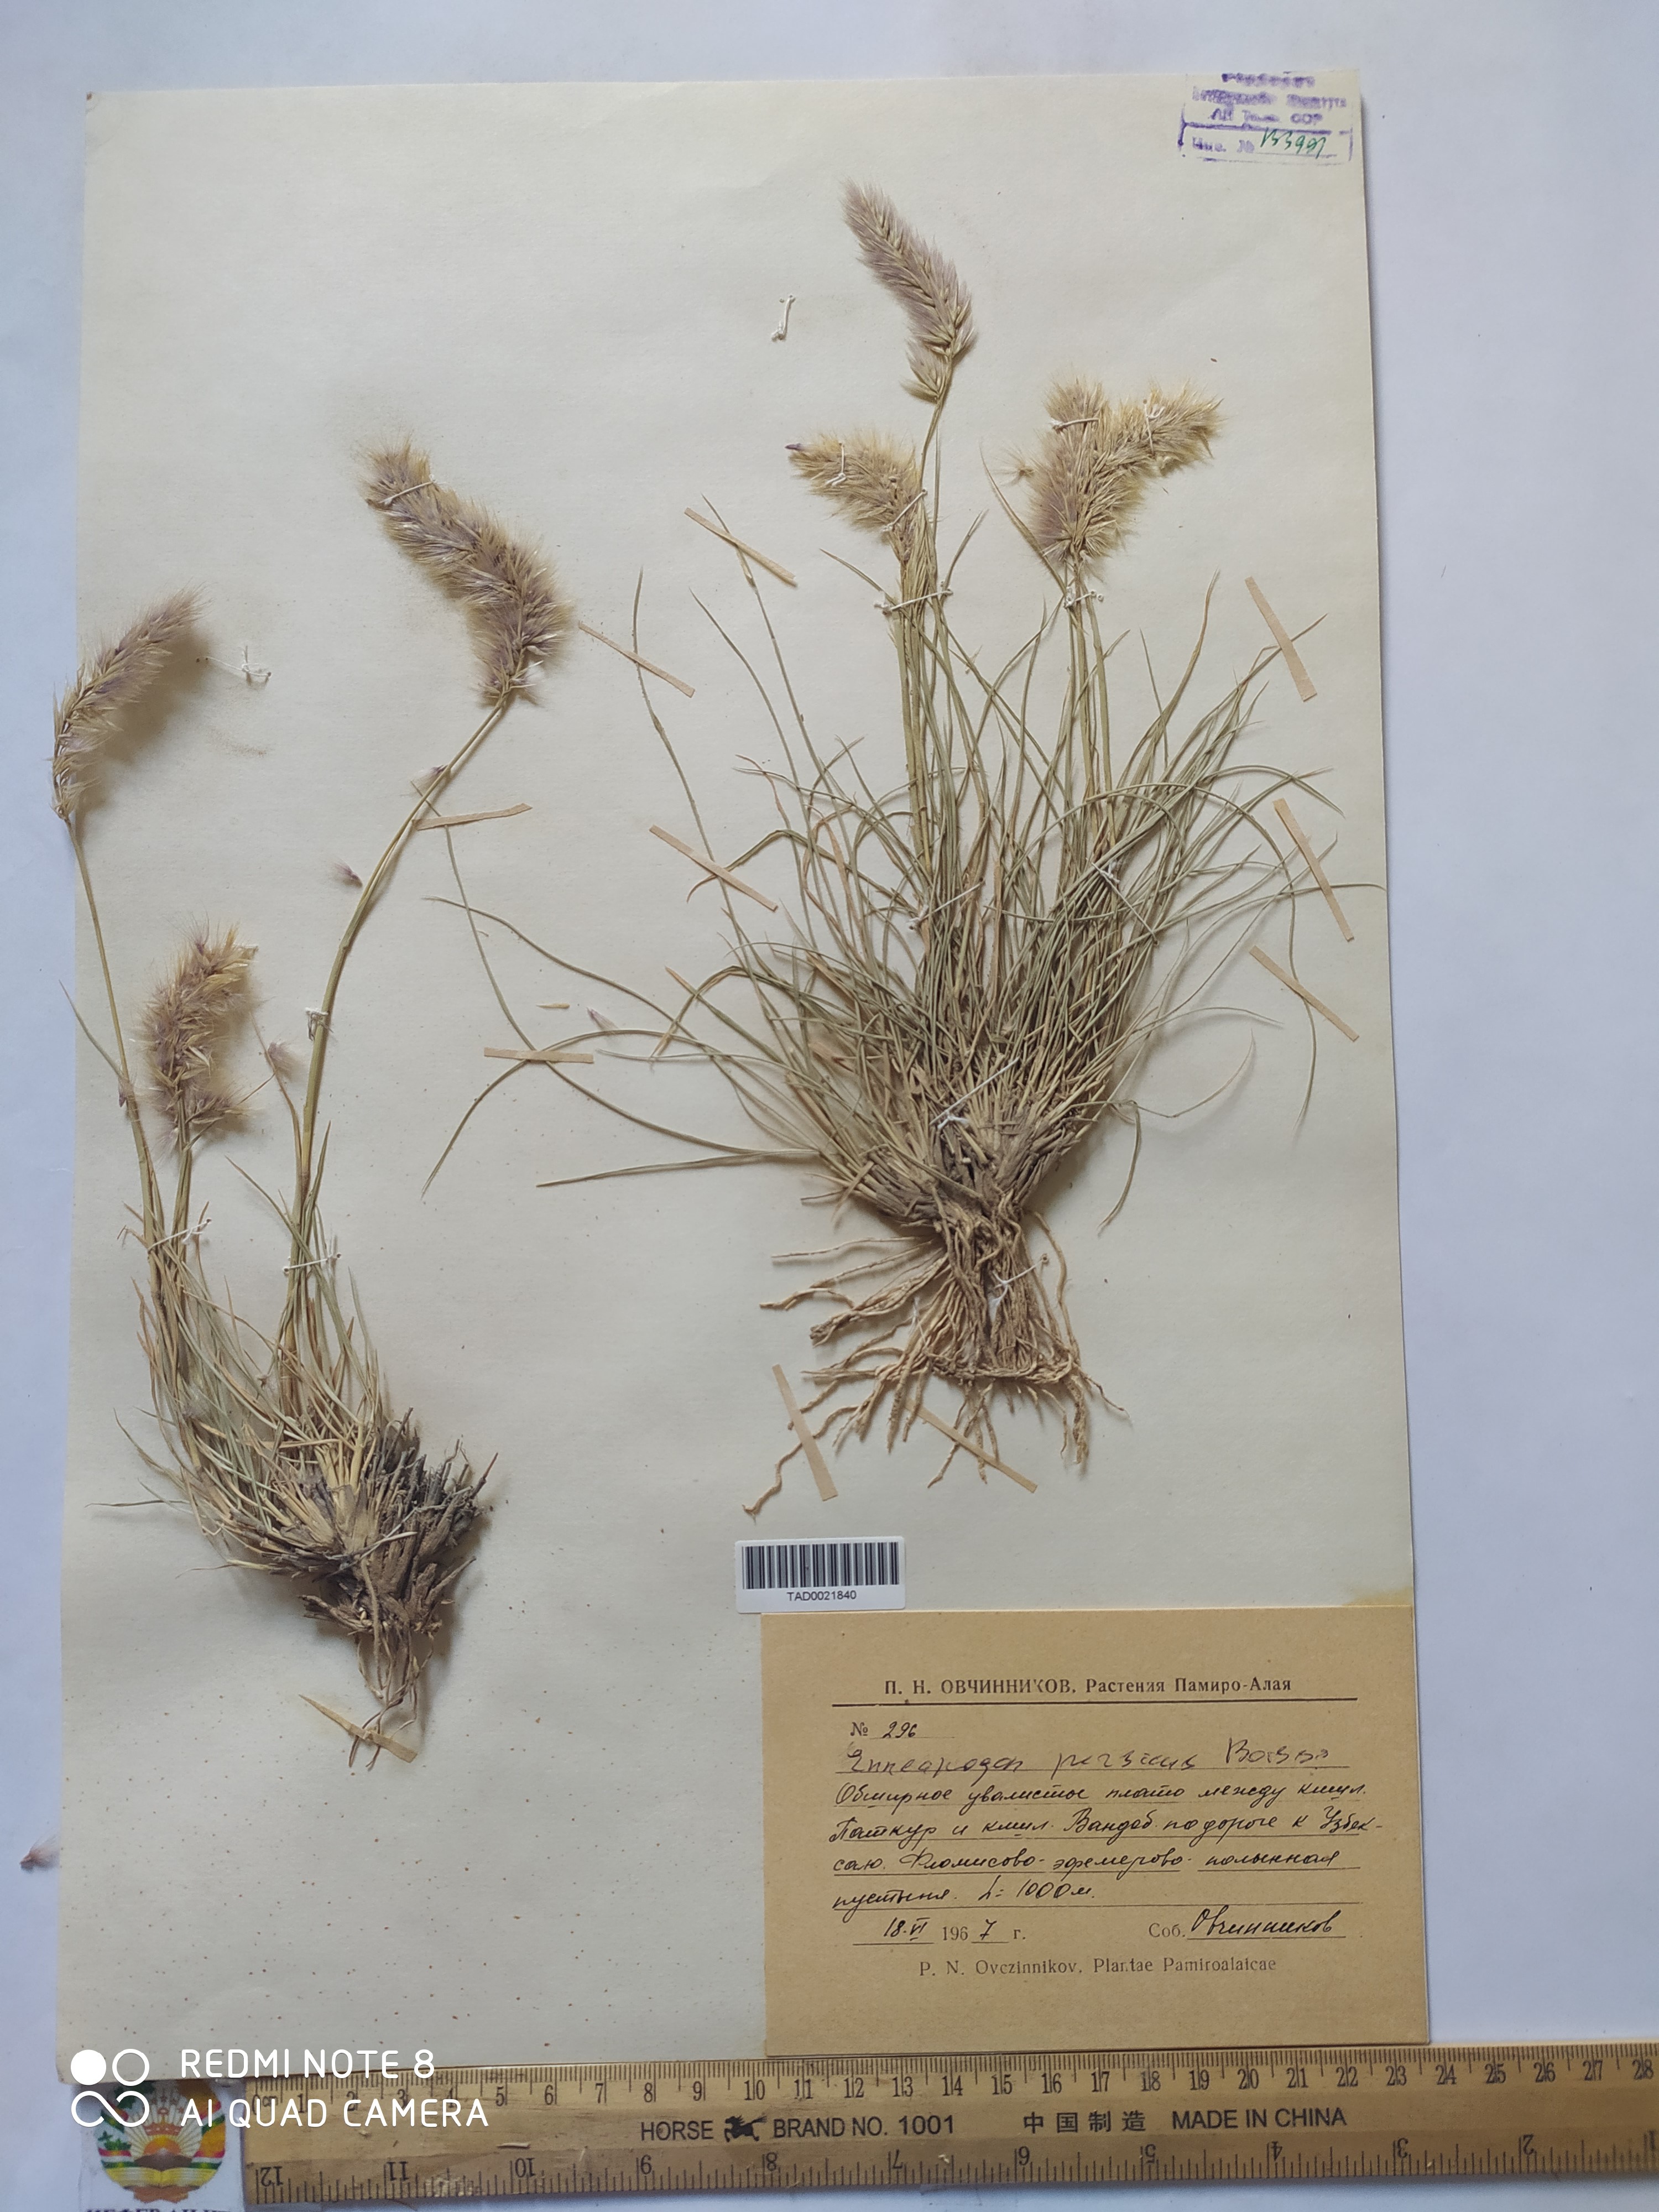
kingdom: Plantae
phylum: Tracheophyta
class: Liliopsida
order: Poales
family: Poaceae
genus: Enneapogon
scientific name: Enneapogon persicus
